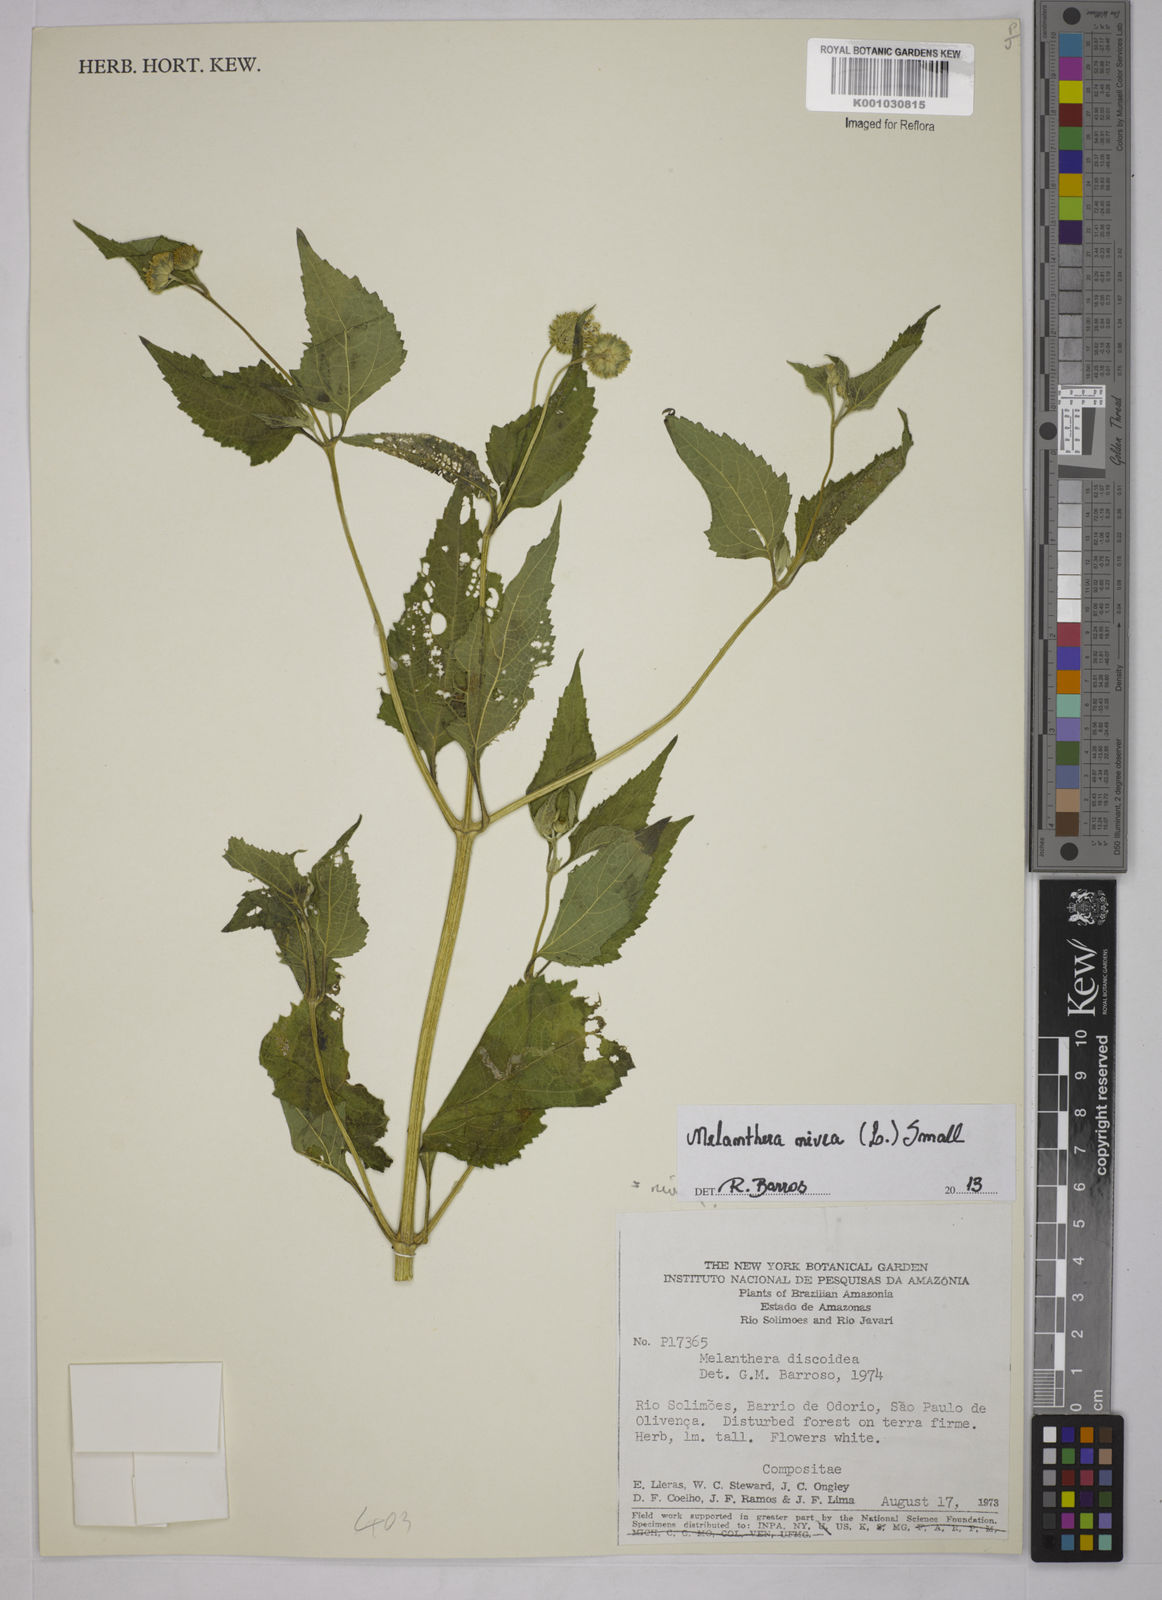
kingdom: Plantae
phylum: Tracheophyta
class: Magnoliopsida
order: Asterales
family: Asteraceae
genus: Melanthera
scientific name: Melanthera nivea
